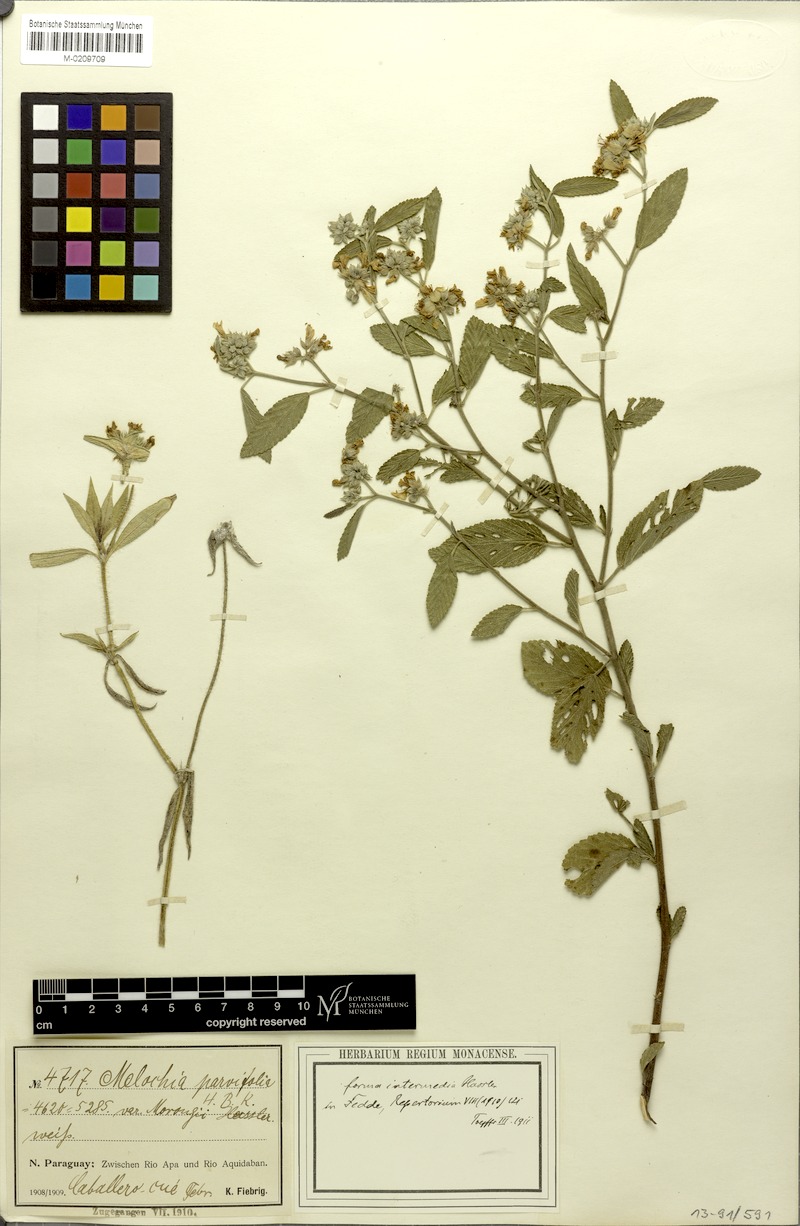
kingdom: Plantae
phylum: Tracheophyta
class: Magnoliopsida
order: Malvales
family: Malvaceae
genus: Melochia
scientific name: Melochia parvifolia
